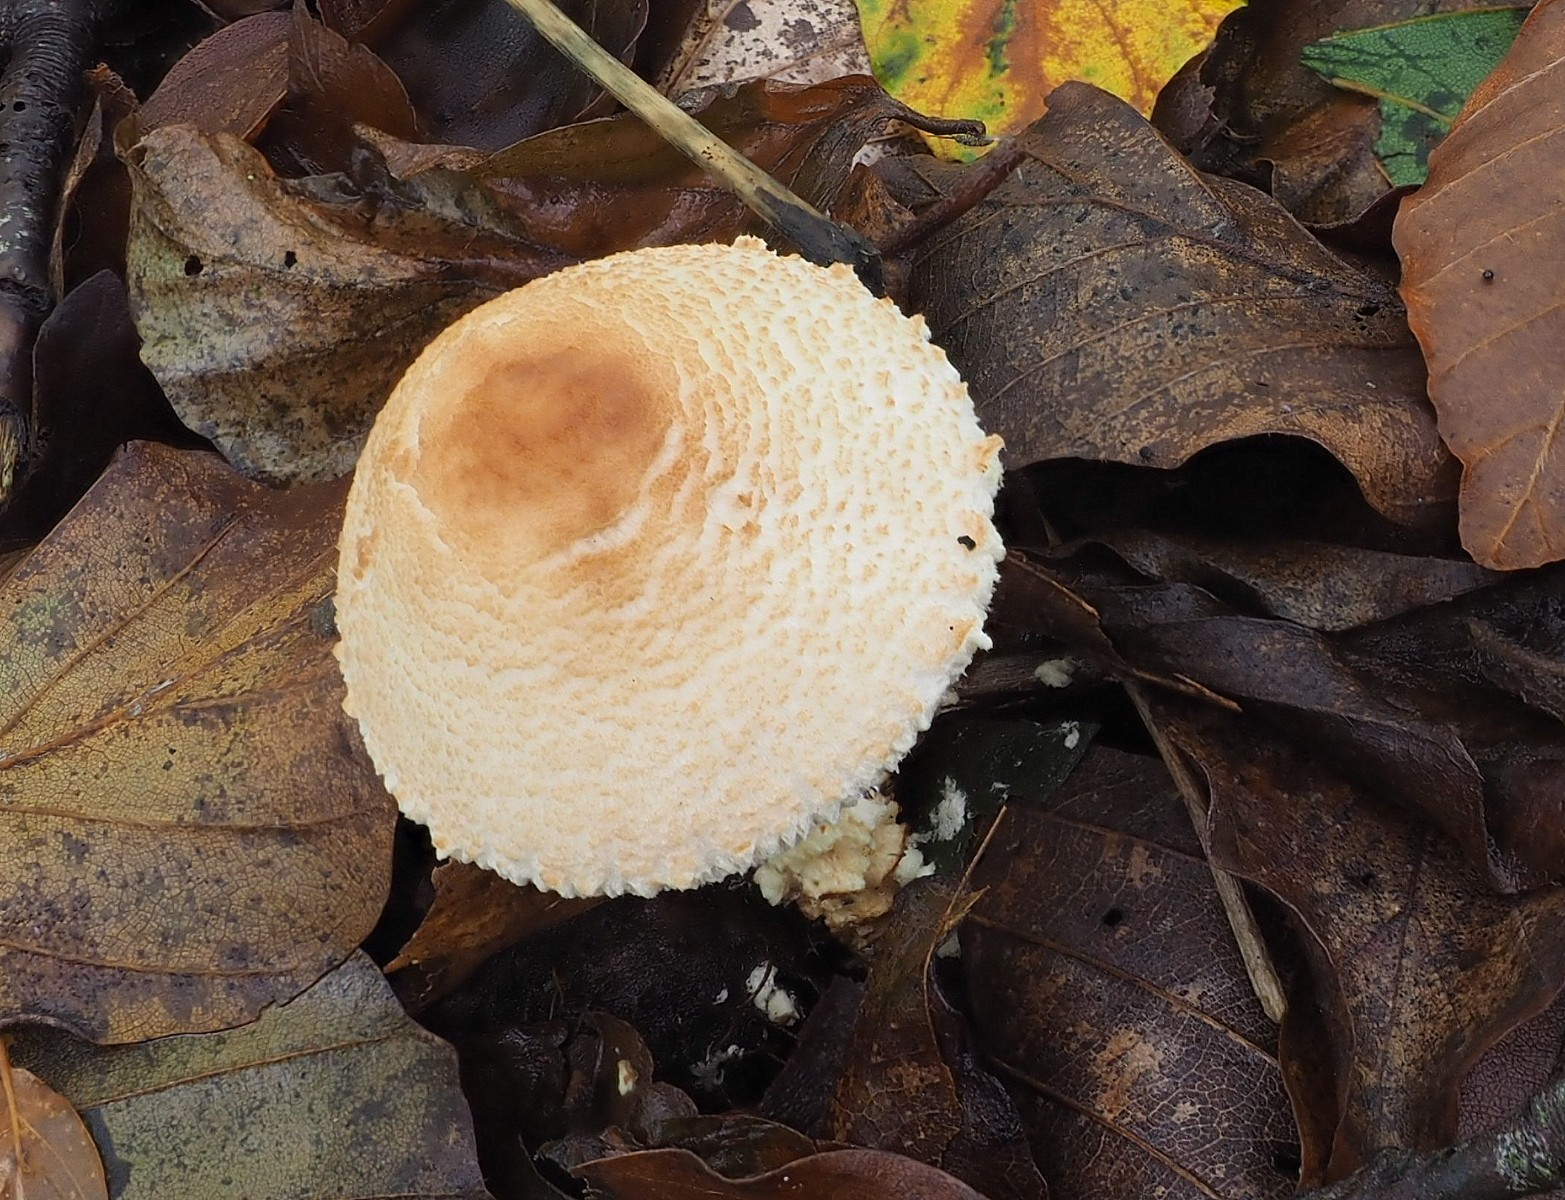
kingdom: Fungi
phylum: Basidiomycota
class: Agaricomycetes
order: Agaricales
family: Agaricaceae
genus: Lepiota
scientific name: Lepiota magnispora
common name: gulfnugget parasolhat
